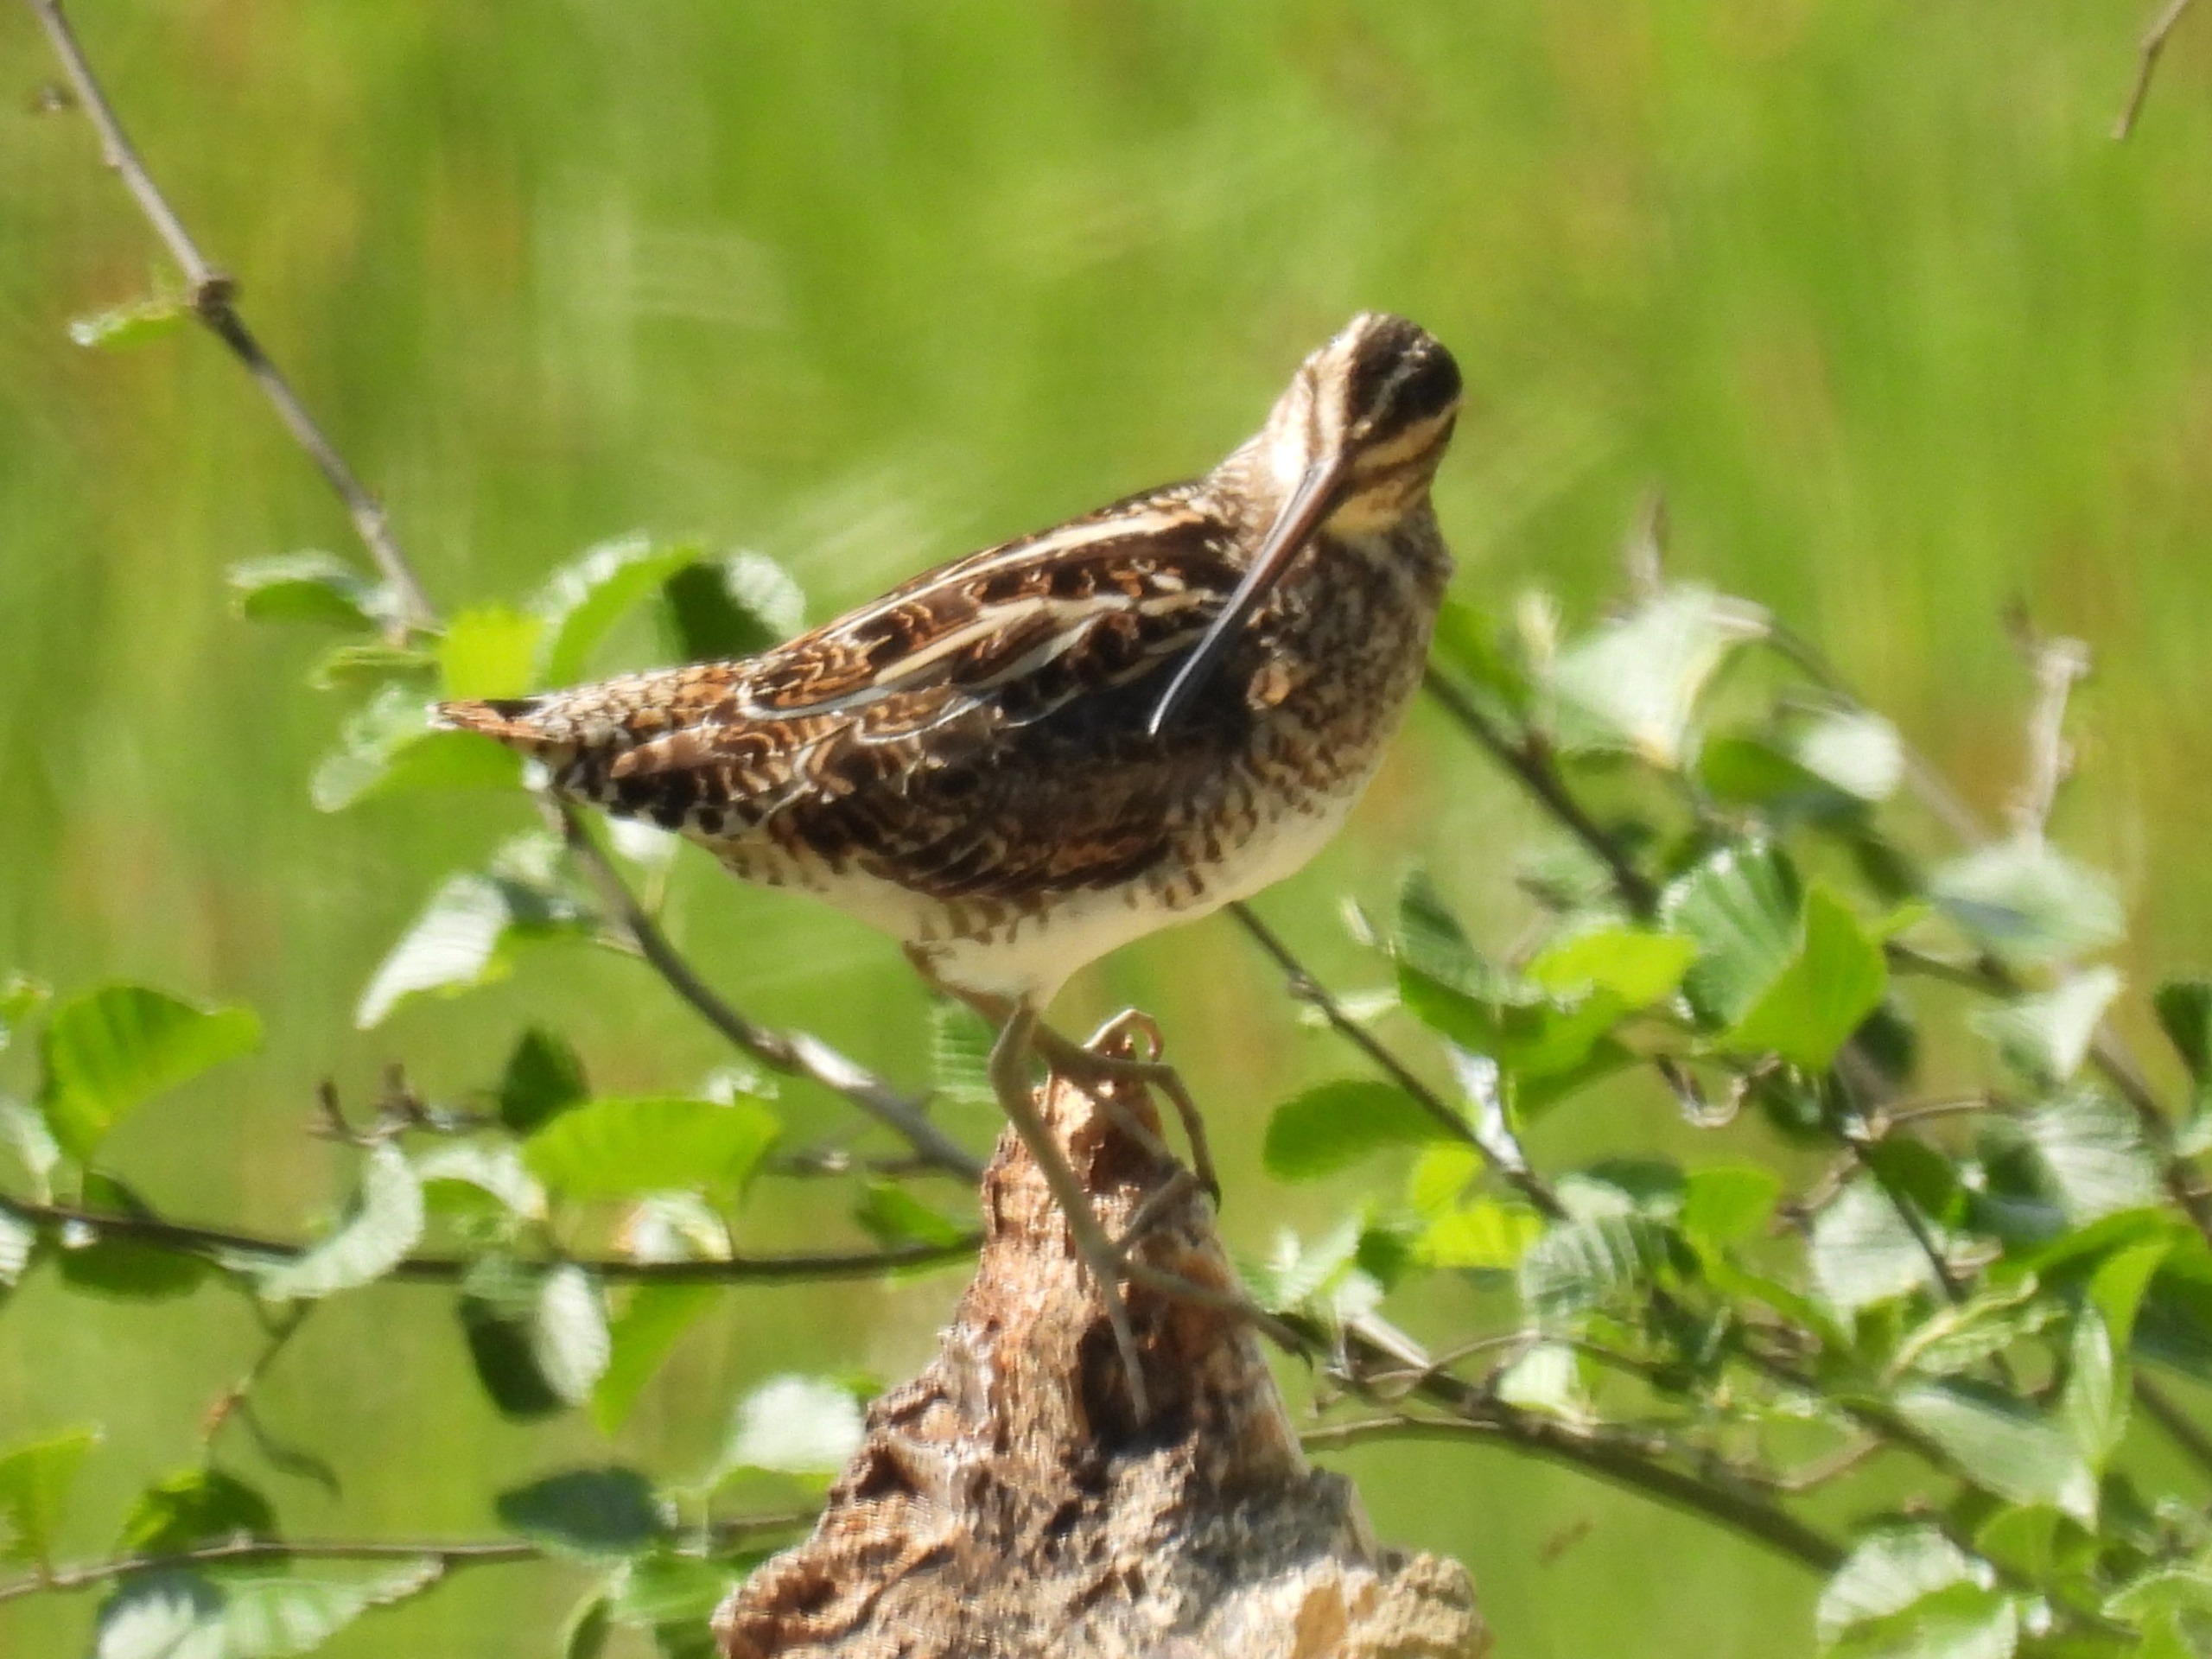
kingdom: Animalia
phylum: Chordata
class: Aves
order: Charadriiformes
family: Scolopacidae
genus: Gallinago
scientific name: Gallinago gallinago
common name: Dobbeltbekkasin
